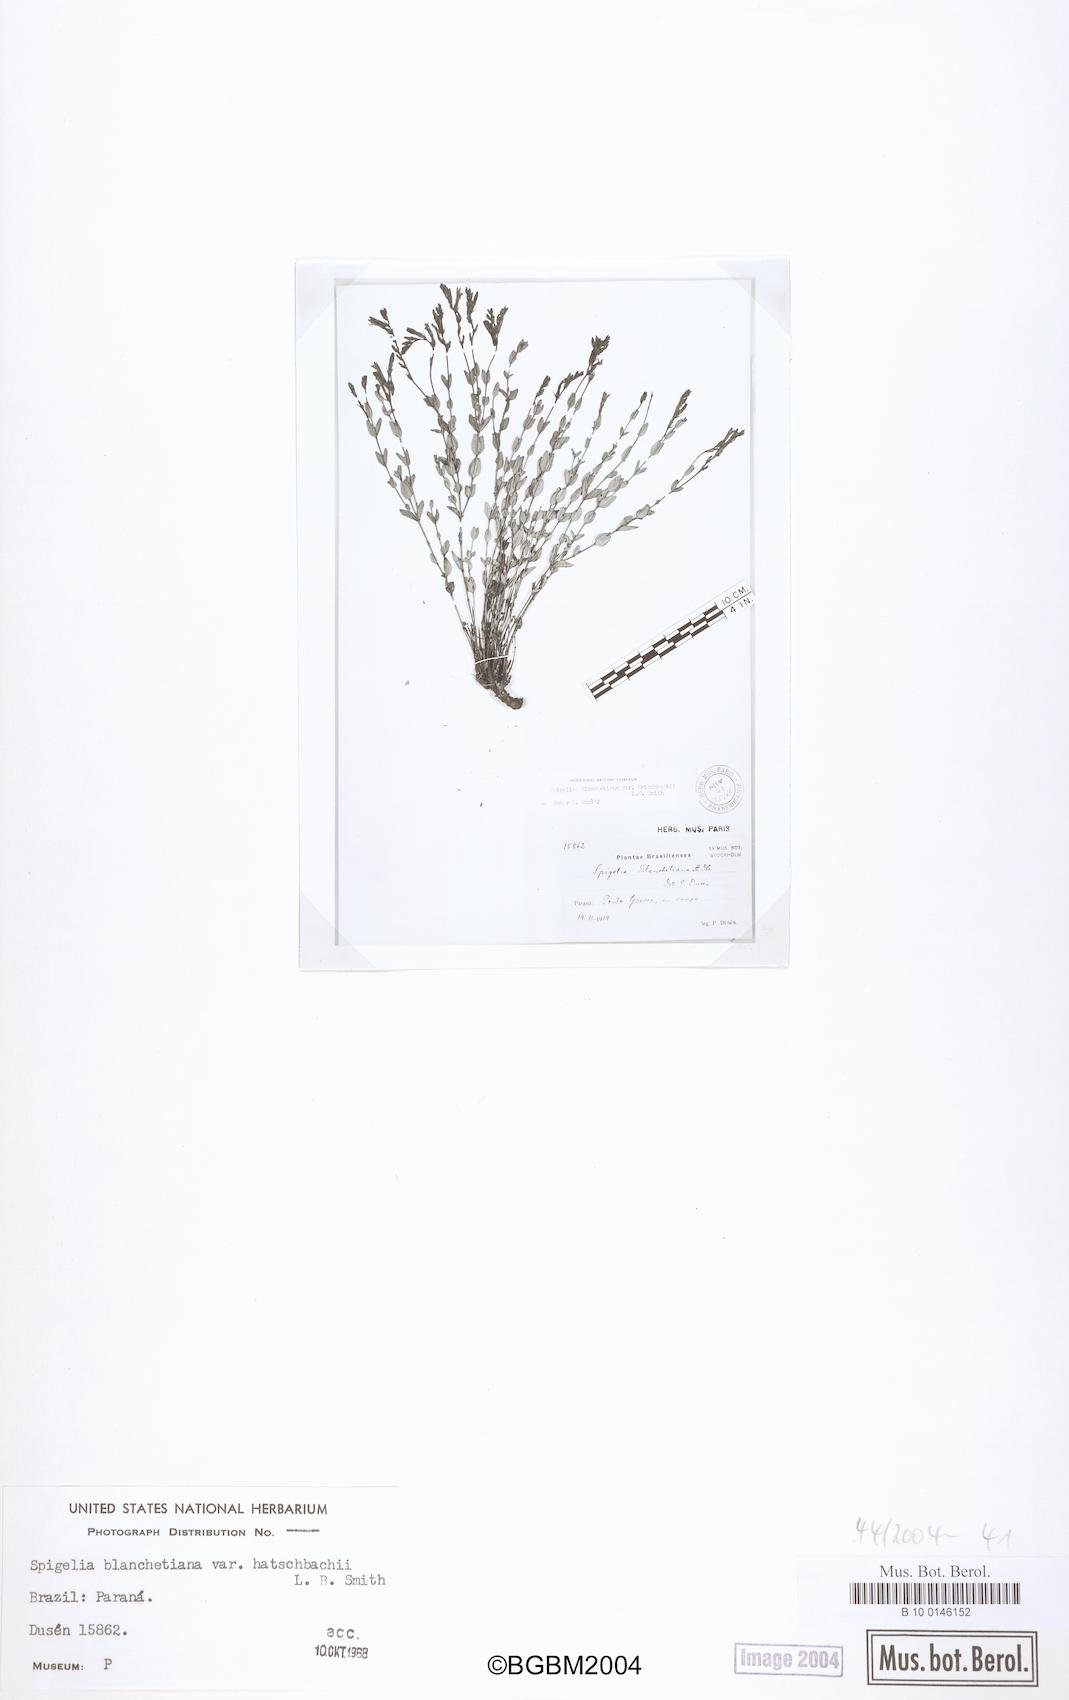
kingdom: Plantae
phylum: Tracheophyta
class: Magnoliopsida
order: Gentianales
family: Loganiaceae
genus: Spigelia
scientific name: Spigelia blanchetiana
